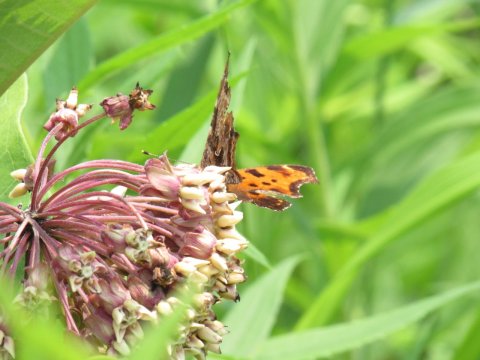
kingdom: Animalia
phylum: Arthropoda
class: Insecta
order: Lepidoptera
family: Nymphalidae
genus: Polygonia
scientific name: Polygonia comma
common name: Eastern Comma
